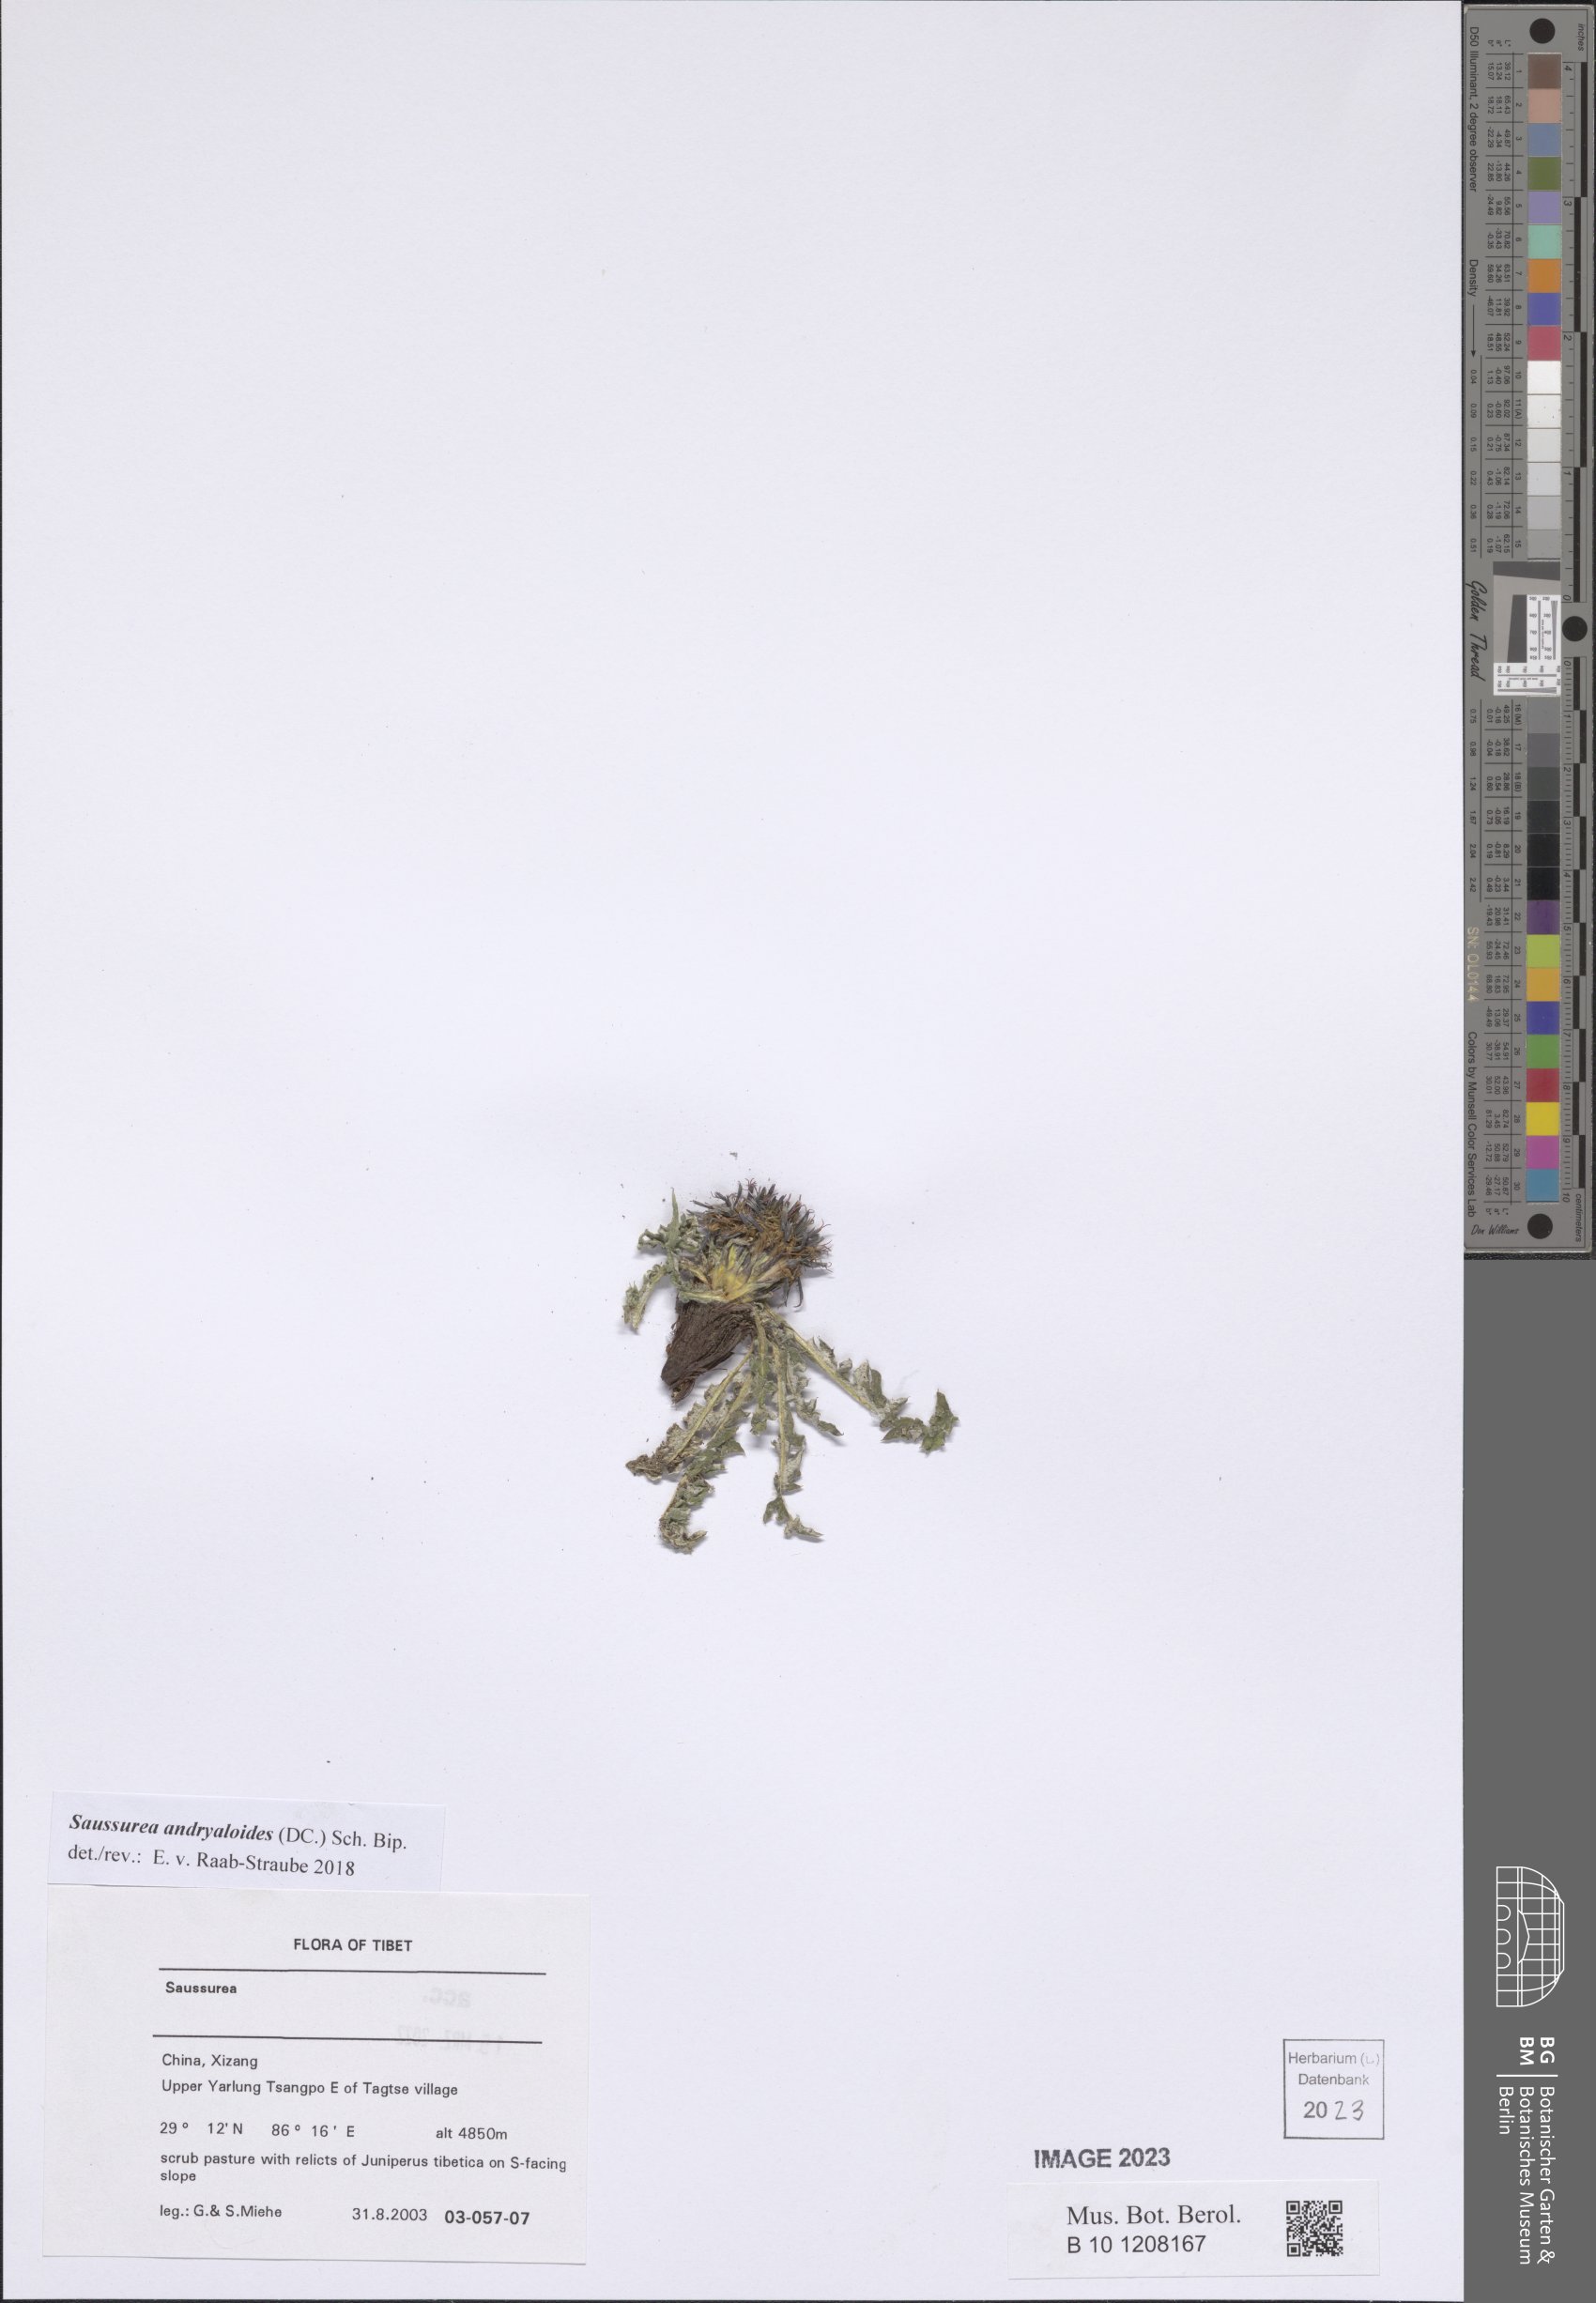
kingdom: Plantae
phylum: Tracheophyta
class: Magnoliopsida
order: Asterales
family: Asteraceae
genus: Saussurea
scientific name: Saussurea andryaloides
